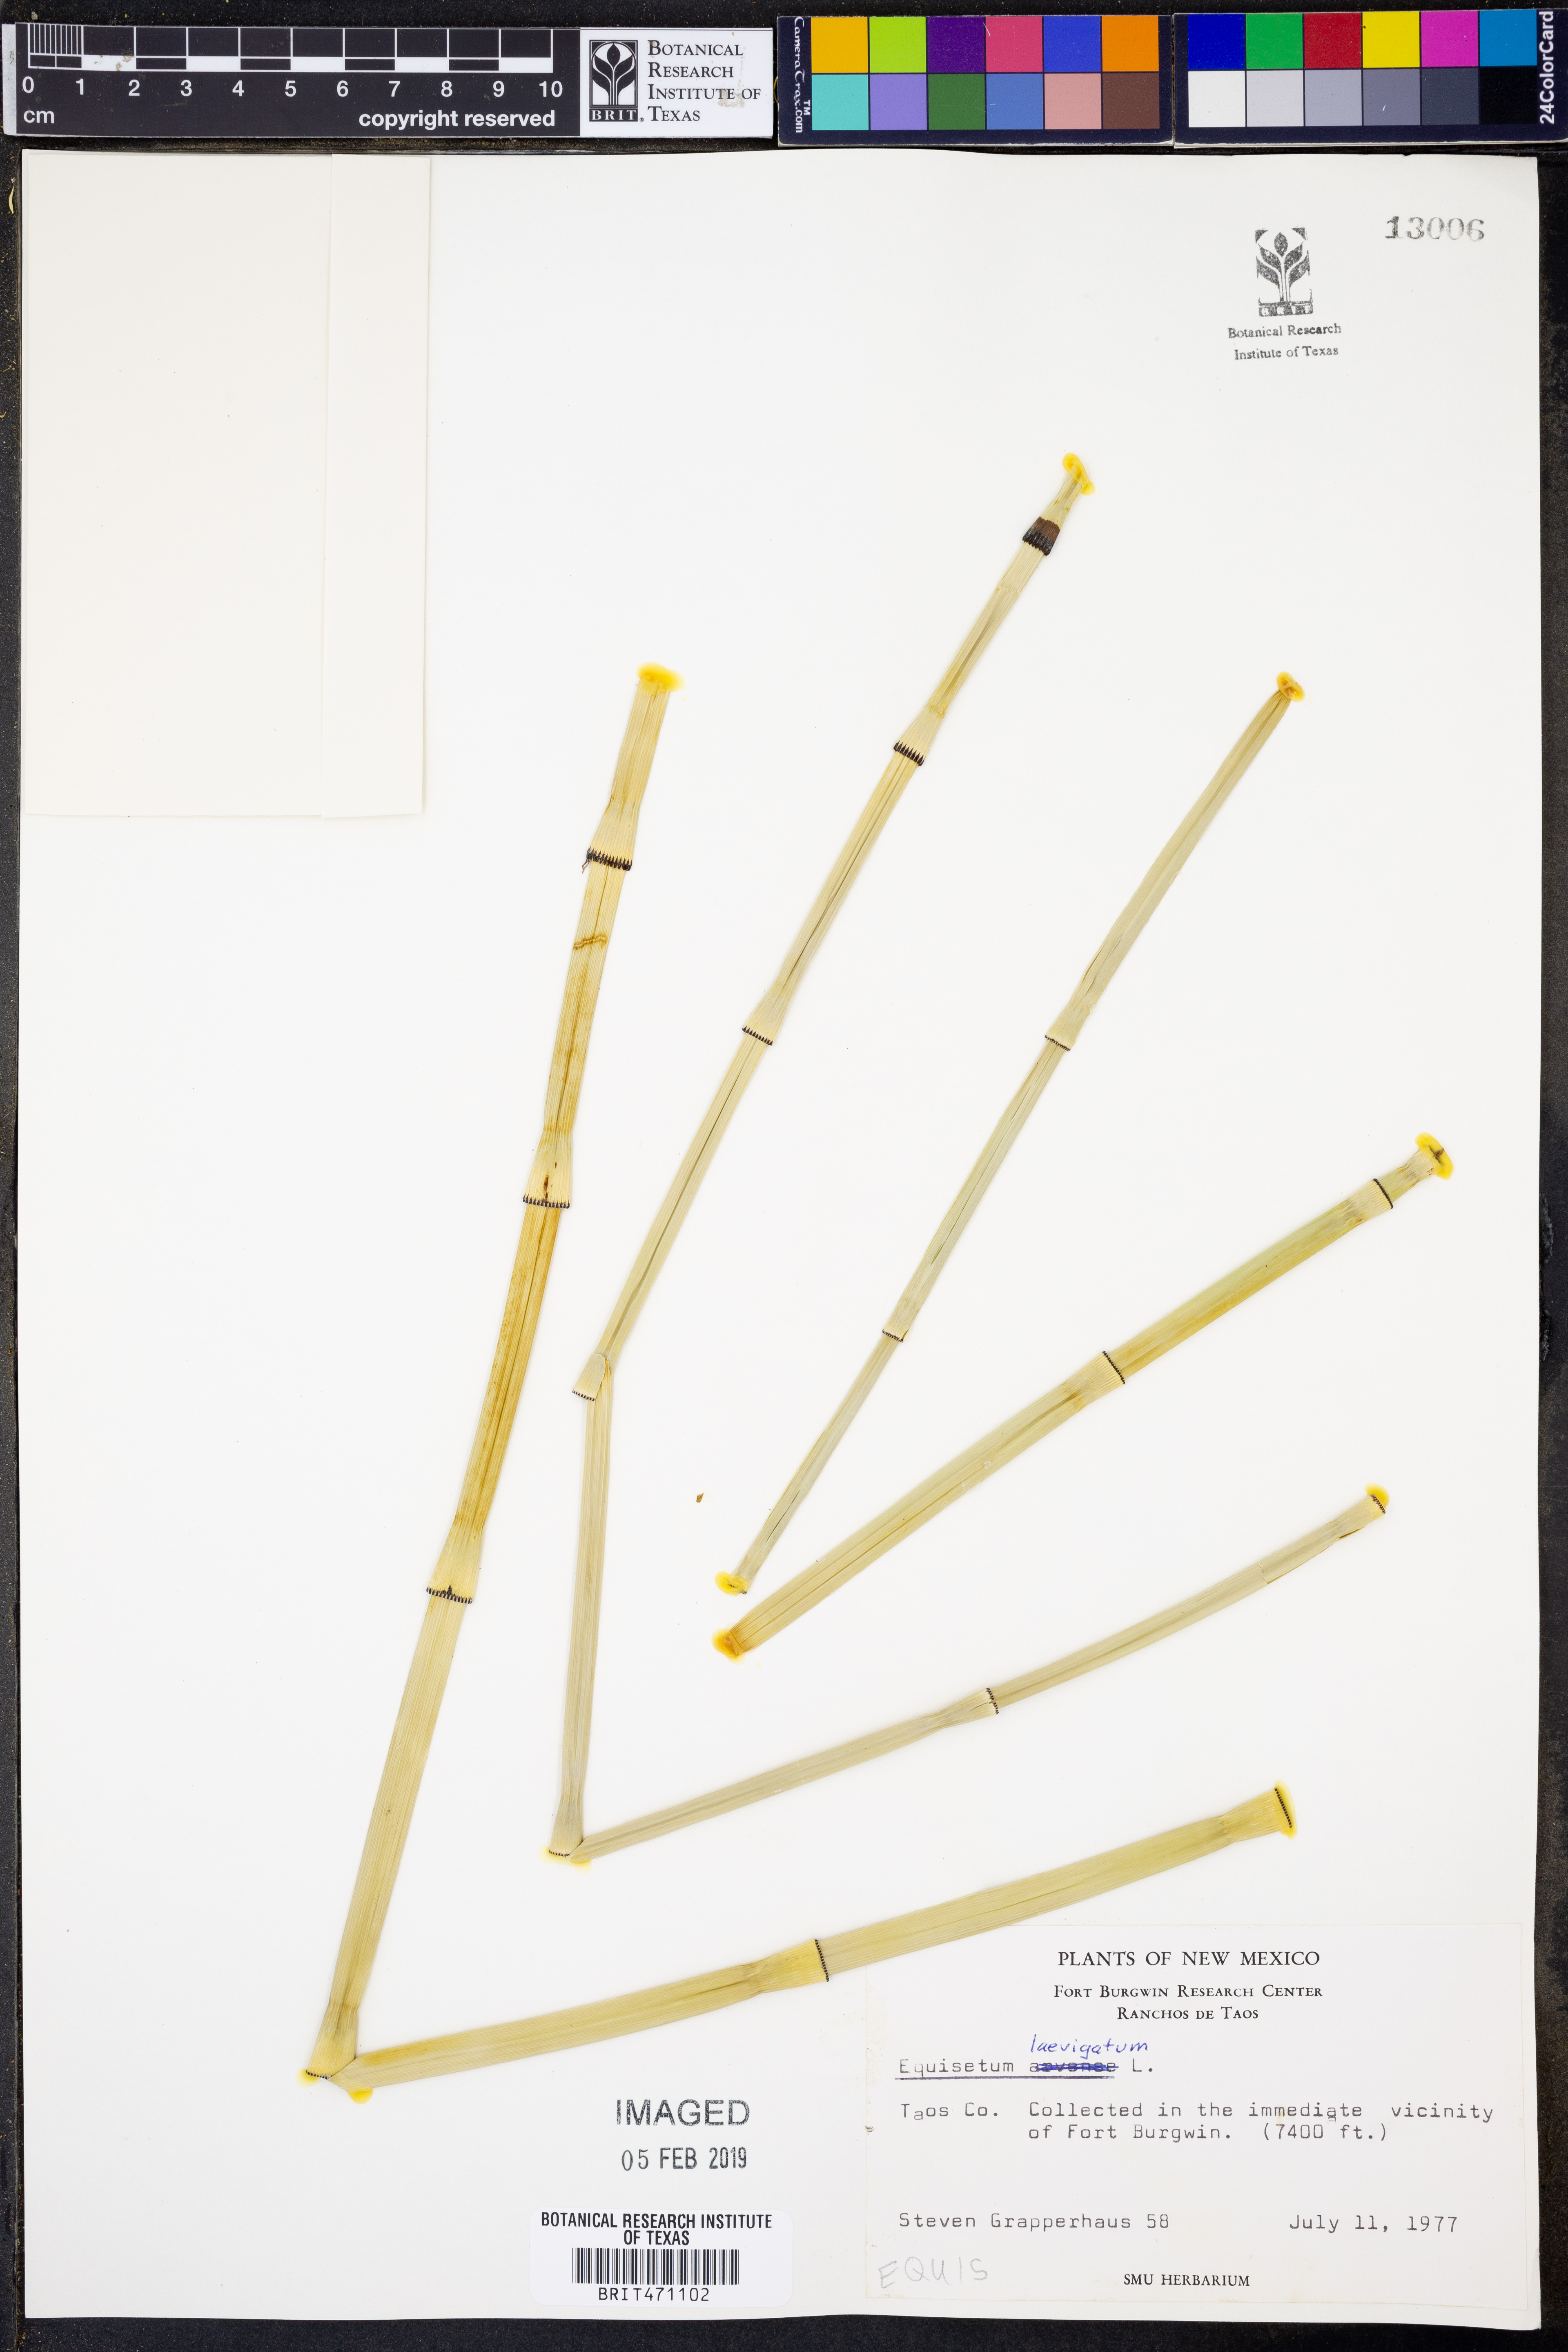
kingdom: Plantae
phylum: Tracheophyta
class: Polypodiopsida
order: Equisetales
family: Equisetaceae
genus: Equisetum
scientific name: Equisetum laevigatum
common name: Smooth scouring-rush
